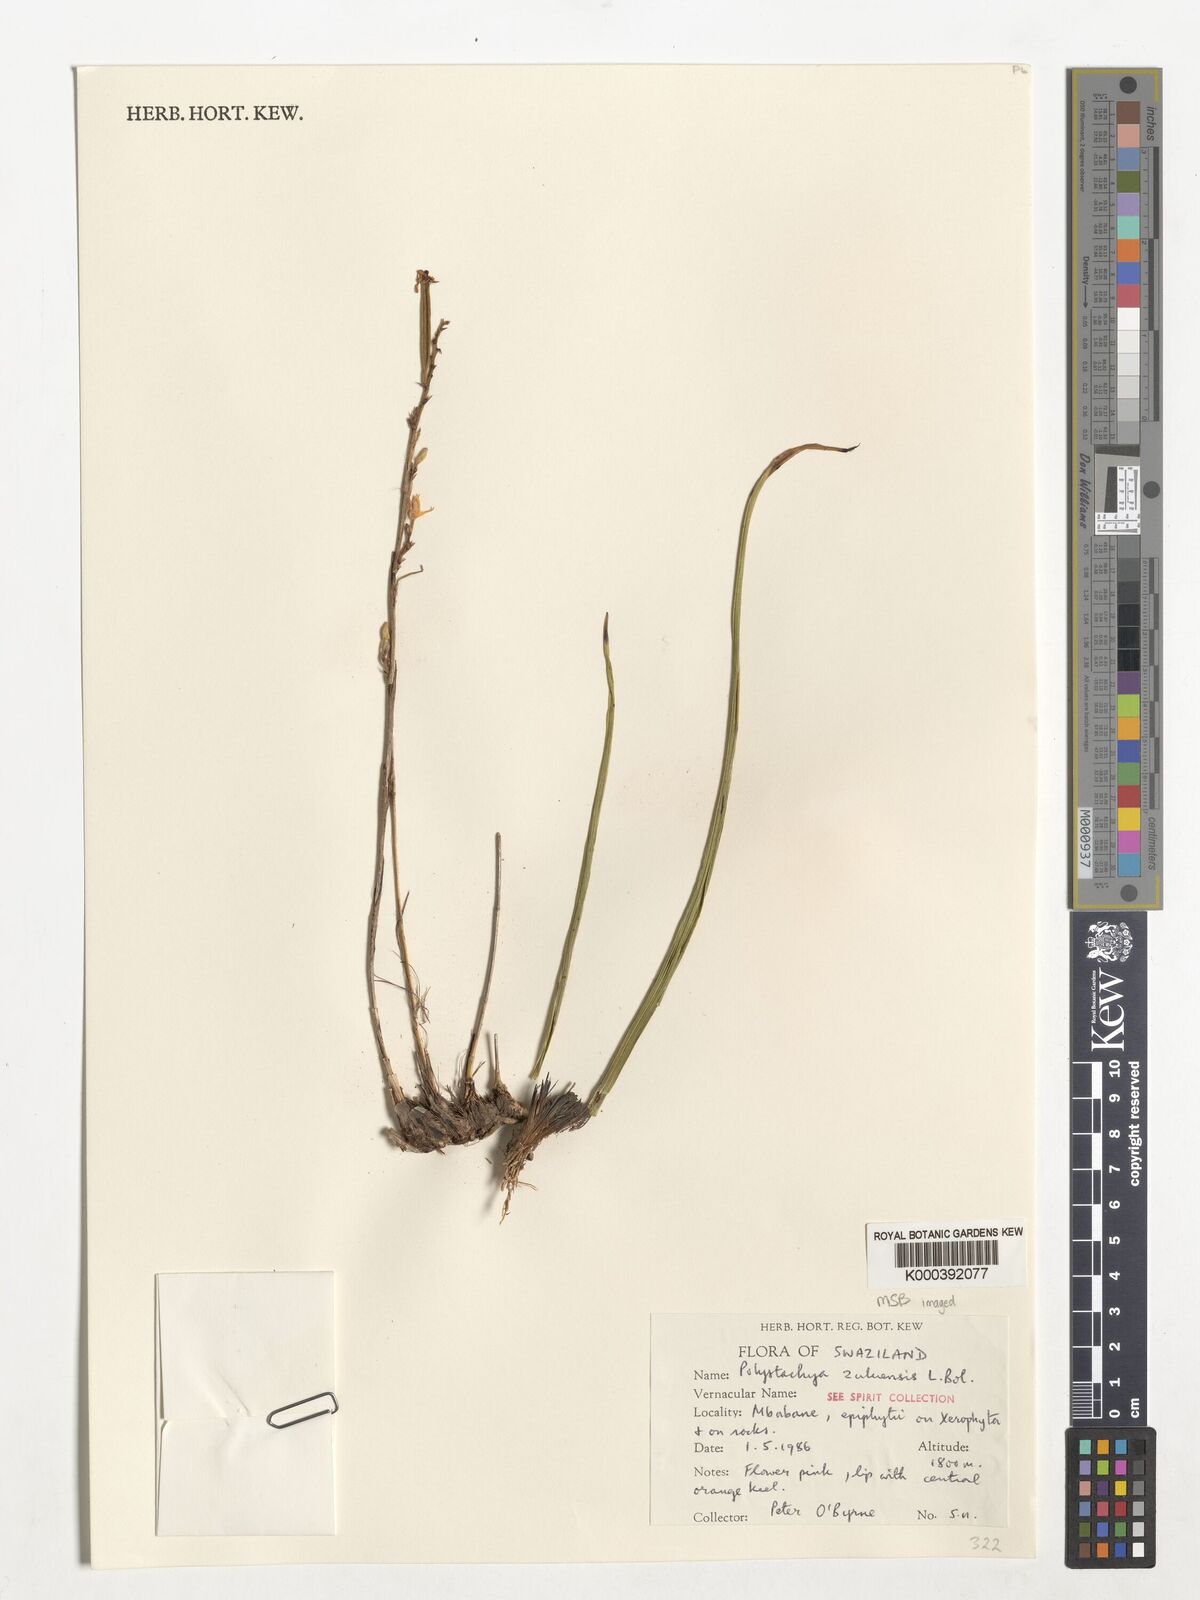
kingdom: Plantae
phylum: Tracheophyta
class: Liliopsida
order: Asparagales
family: Orchidaceae
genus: Polystachya
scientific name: Polystachya zuluensis
